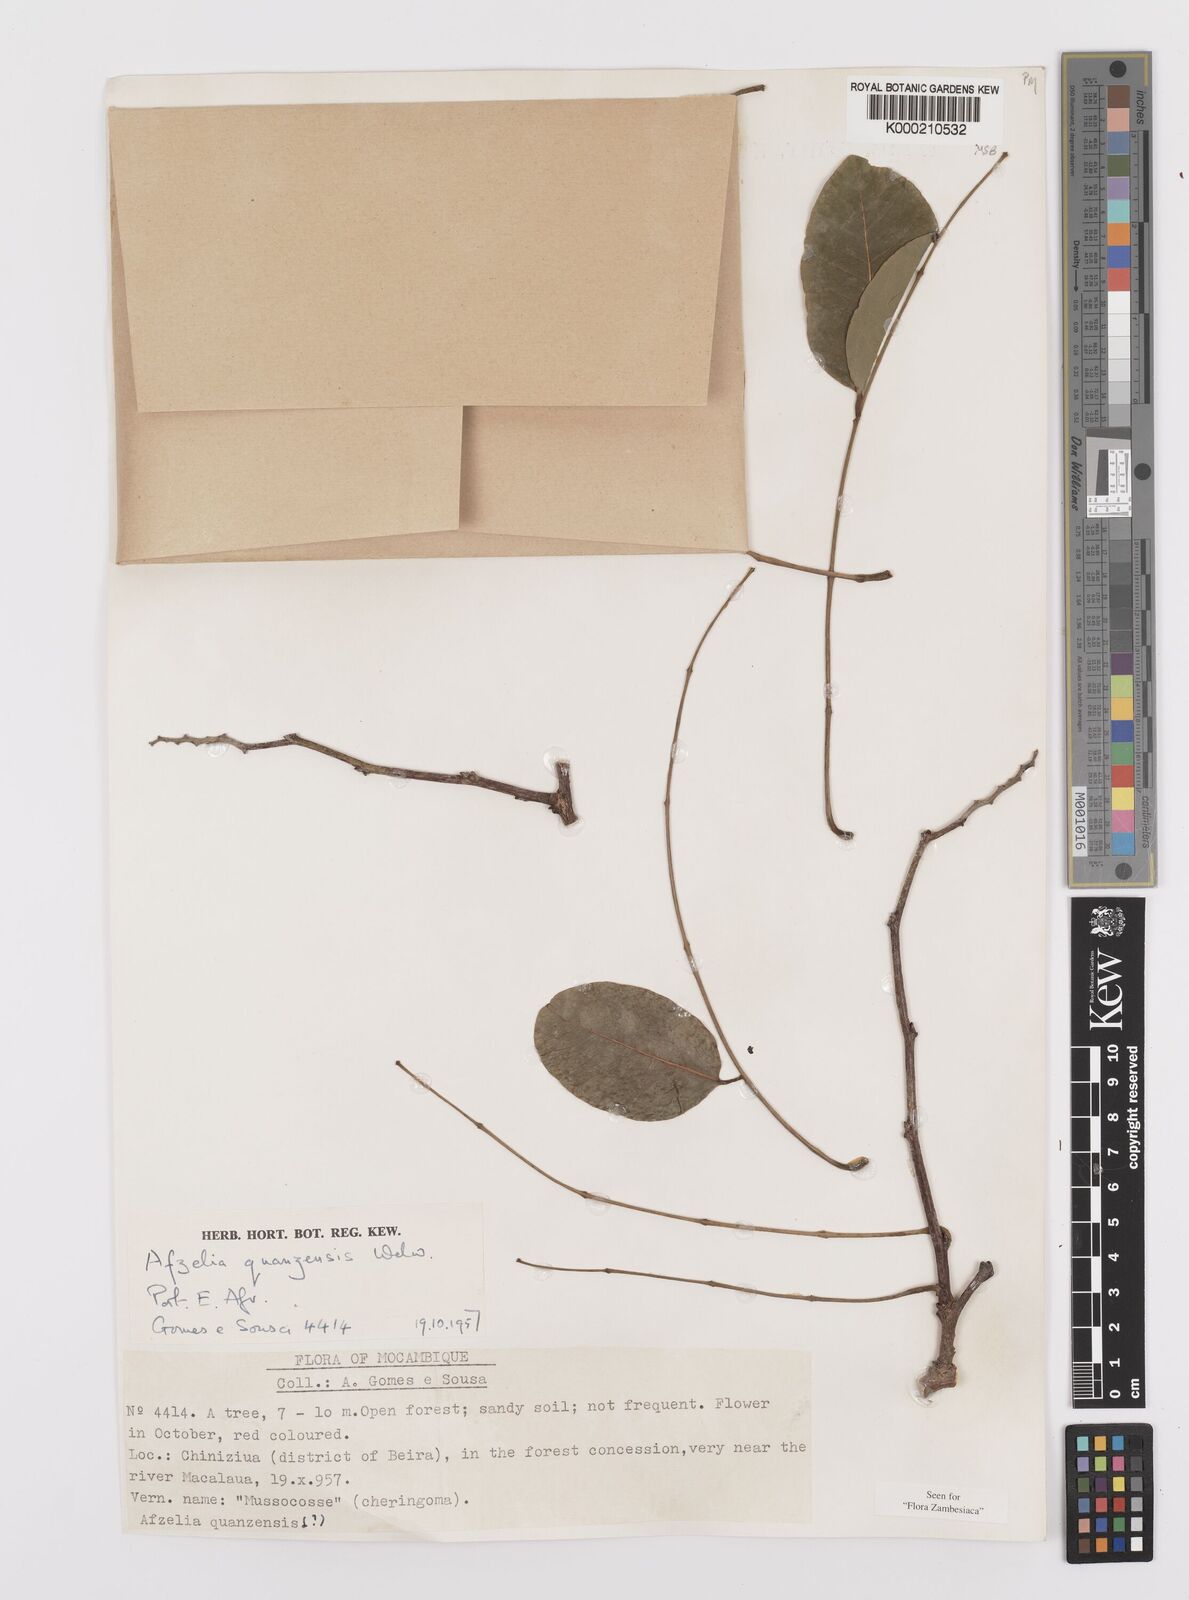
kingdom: Plantae
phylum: Tracheophyta
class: Magnoliopsida
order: Fabales
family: Fabaceae
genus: Afzelia
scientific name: Afzelia quanzensis
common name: Pod mahogany
